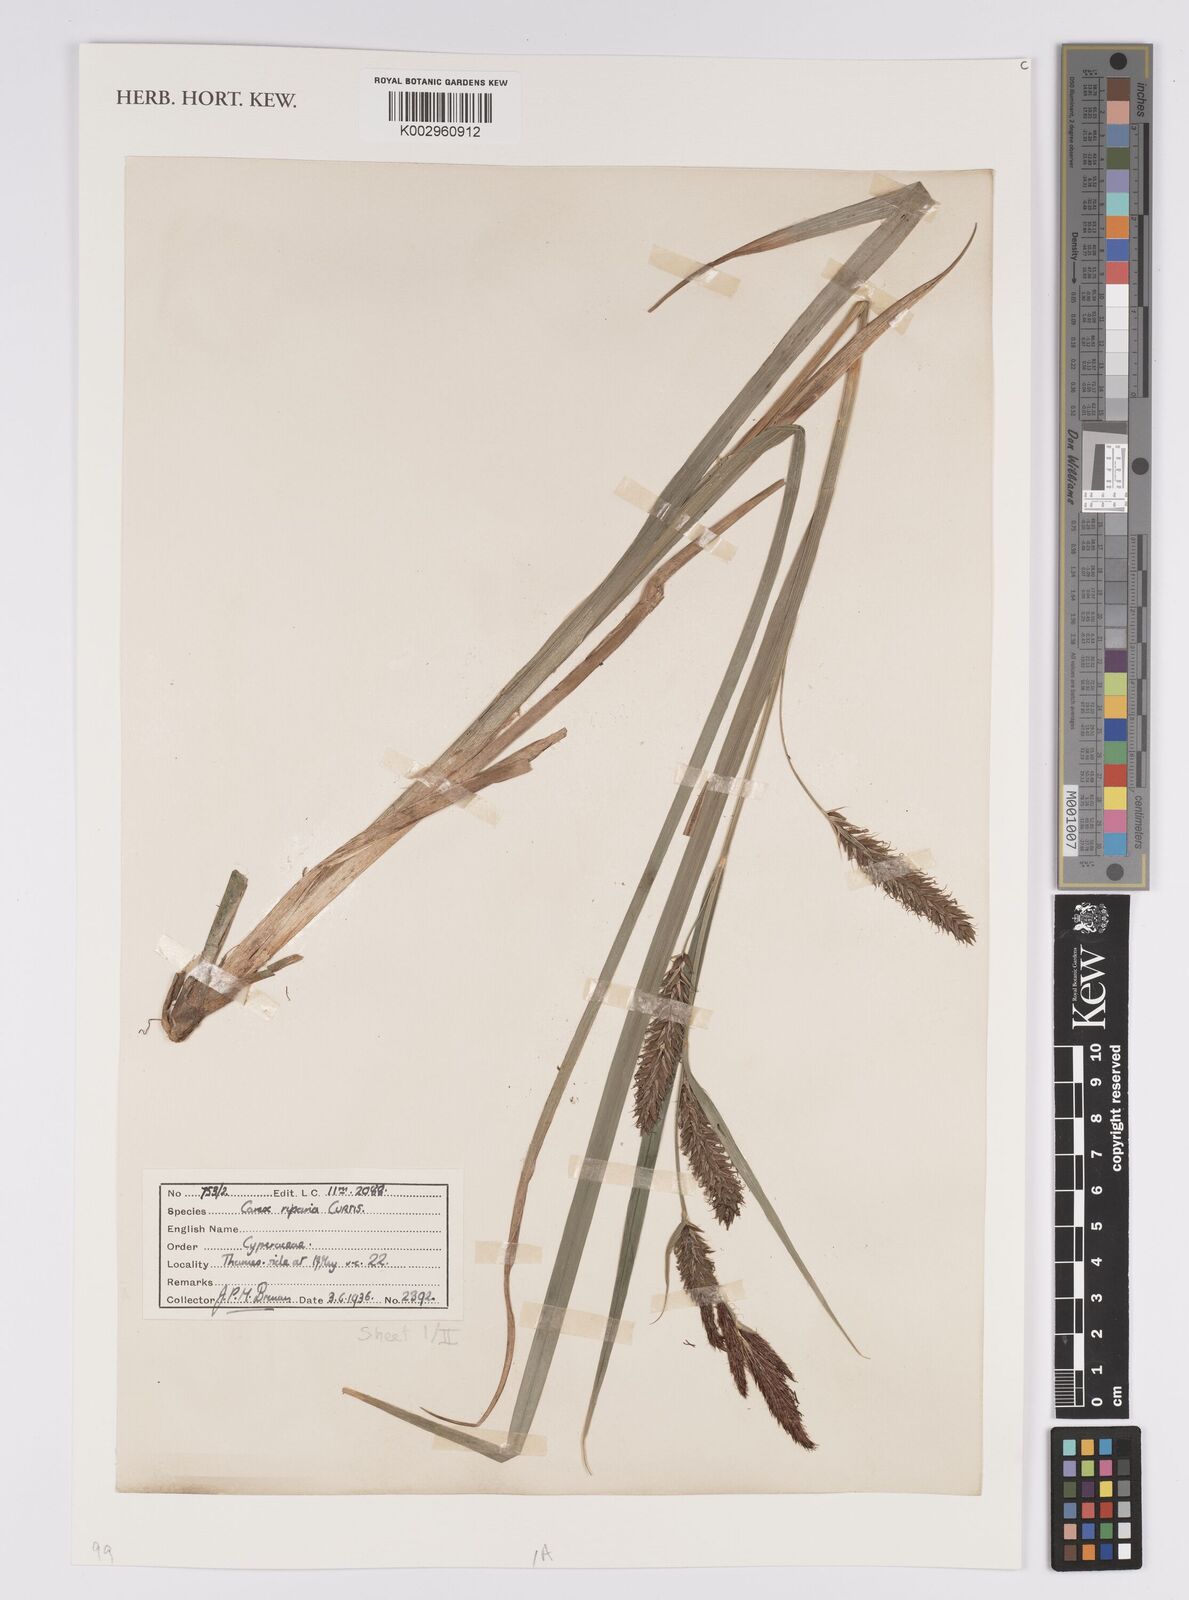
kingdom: Plantae
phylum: Tracheophyta
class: Liliopsida
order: Poales
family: Cyperaceae
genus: Carex
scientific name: Carex riparia
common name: Greater pond-sedge
